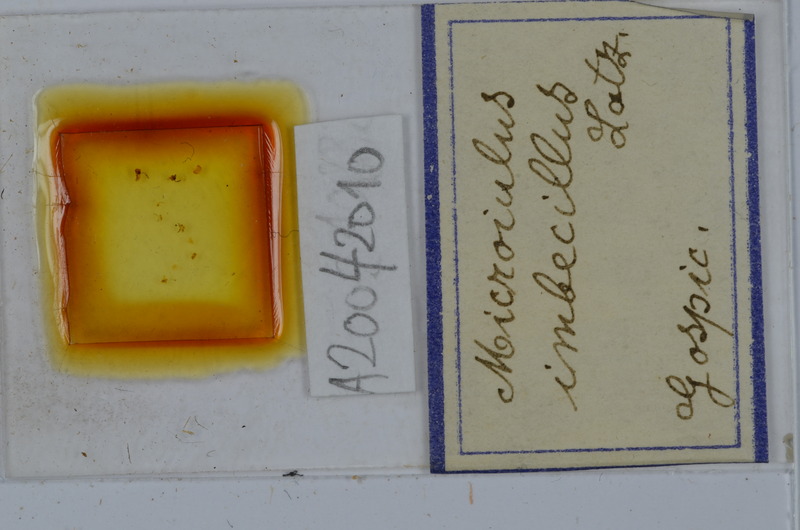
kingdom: Animalia
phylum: Arthropoda
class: Diplopoda
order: Julida
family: Julidae
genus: Microiulus
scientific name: Microiulus imbecillus
